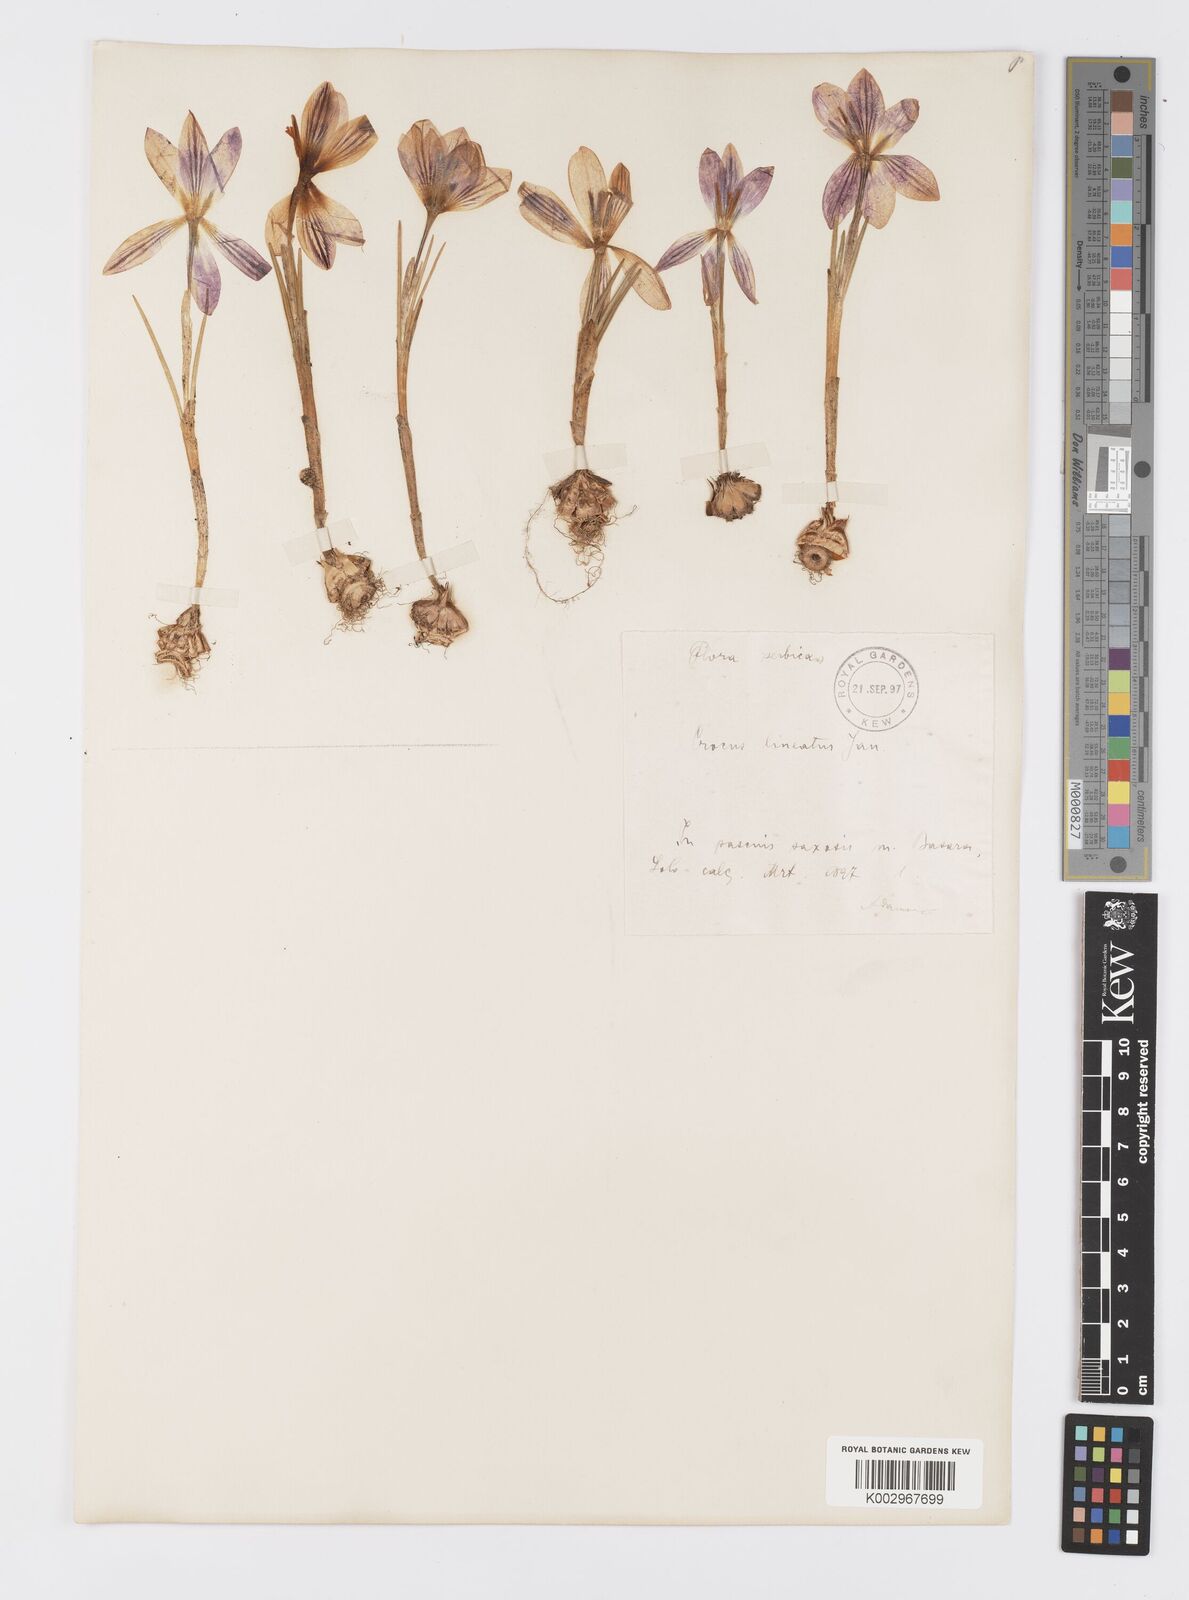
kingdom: Plantae
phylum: Tracheophyta
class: Liliopsida
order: Asparagales
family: Iridaceae
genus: Crocus
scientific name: Crocus adami
